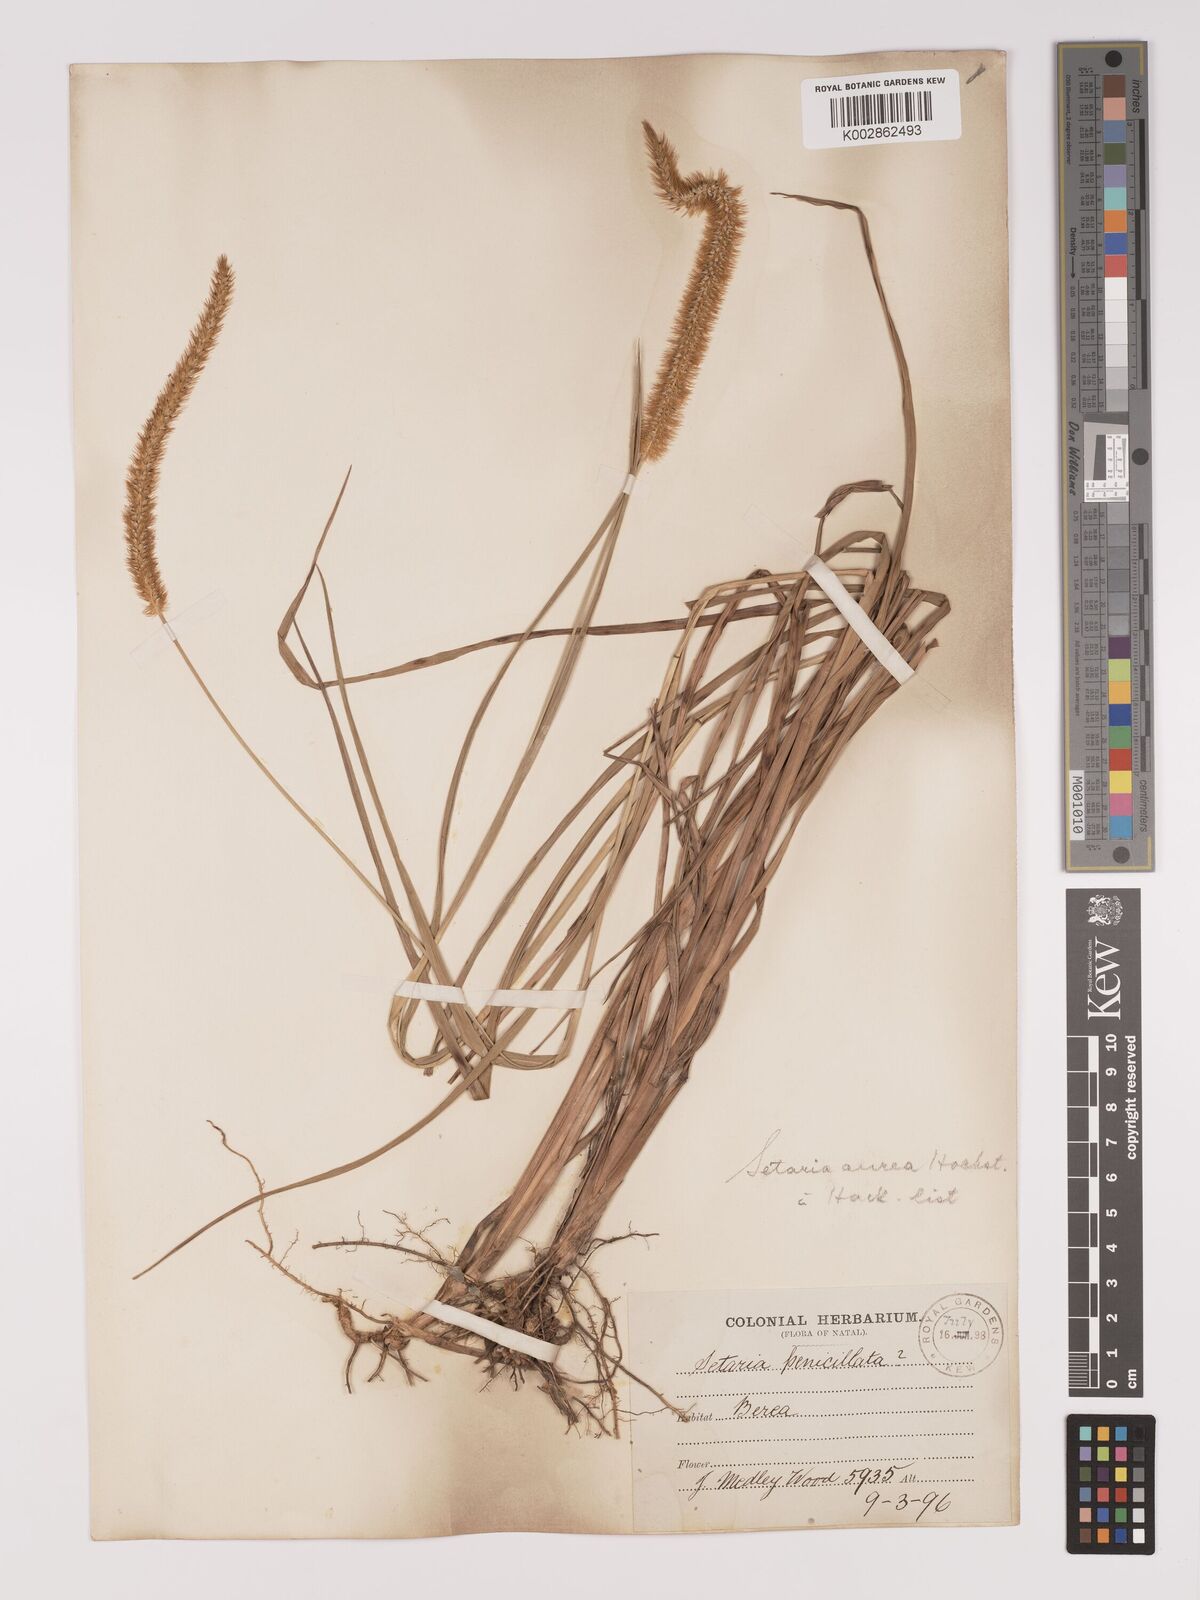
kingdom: Plantae
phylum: Tracheophyta
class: Liliopsida
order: Poales
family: Poaceae
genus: Setaria
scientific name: Setaria sphacelata
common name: African bristlegrass
